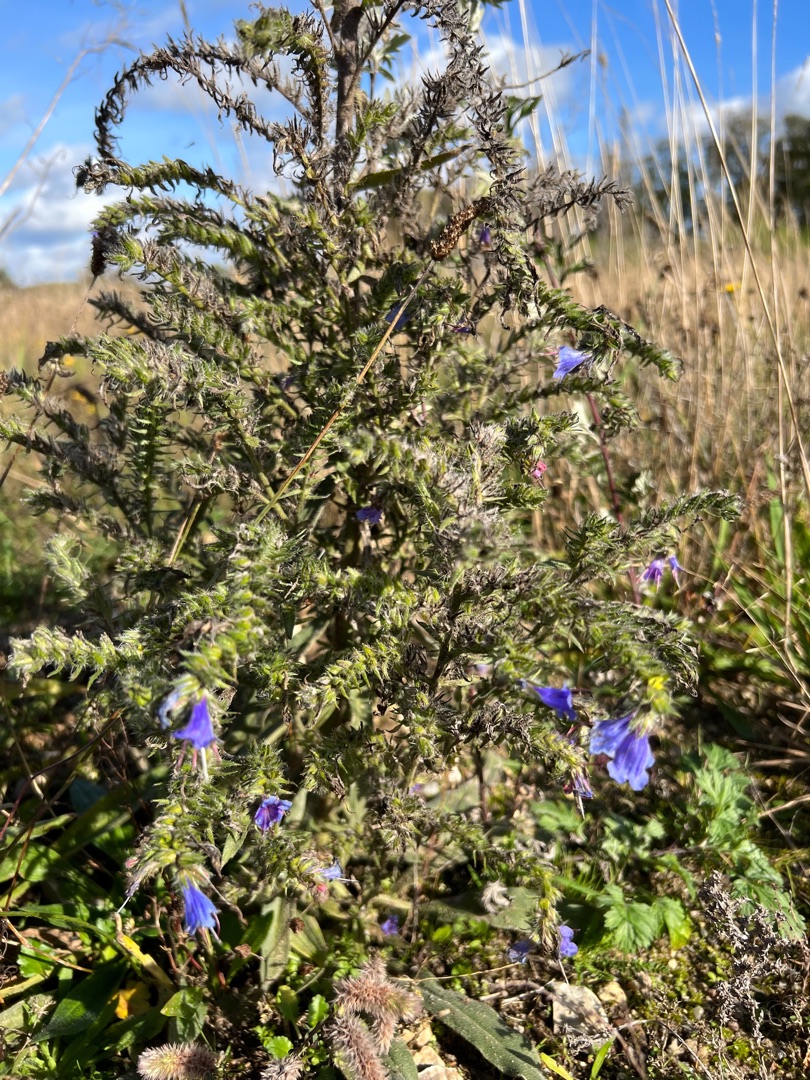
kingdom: Plantae
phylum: Tracheophyta
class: Magnoliopsida
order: Boraginales
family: Boraginaceae
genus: Echium
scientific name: Echium vulgare
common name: Slangehoved
